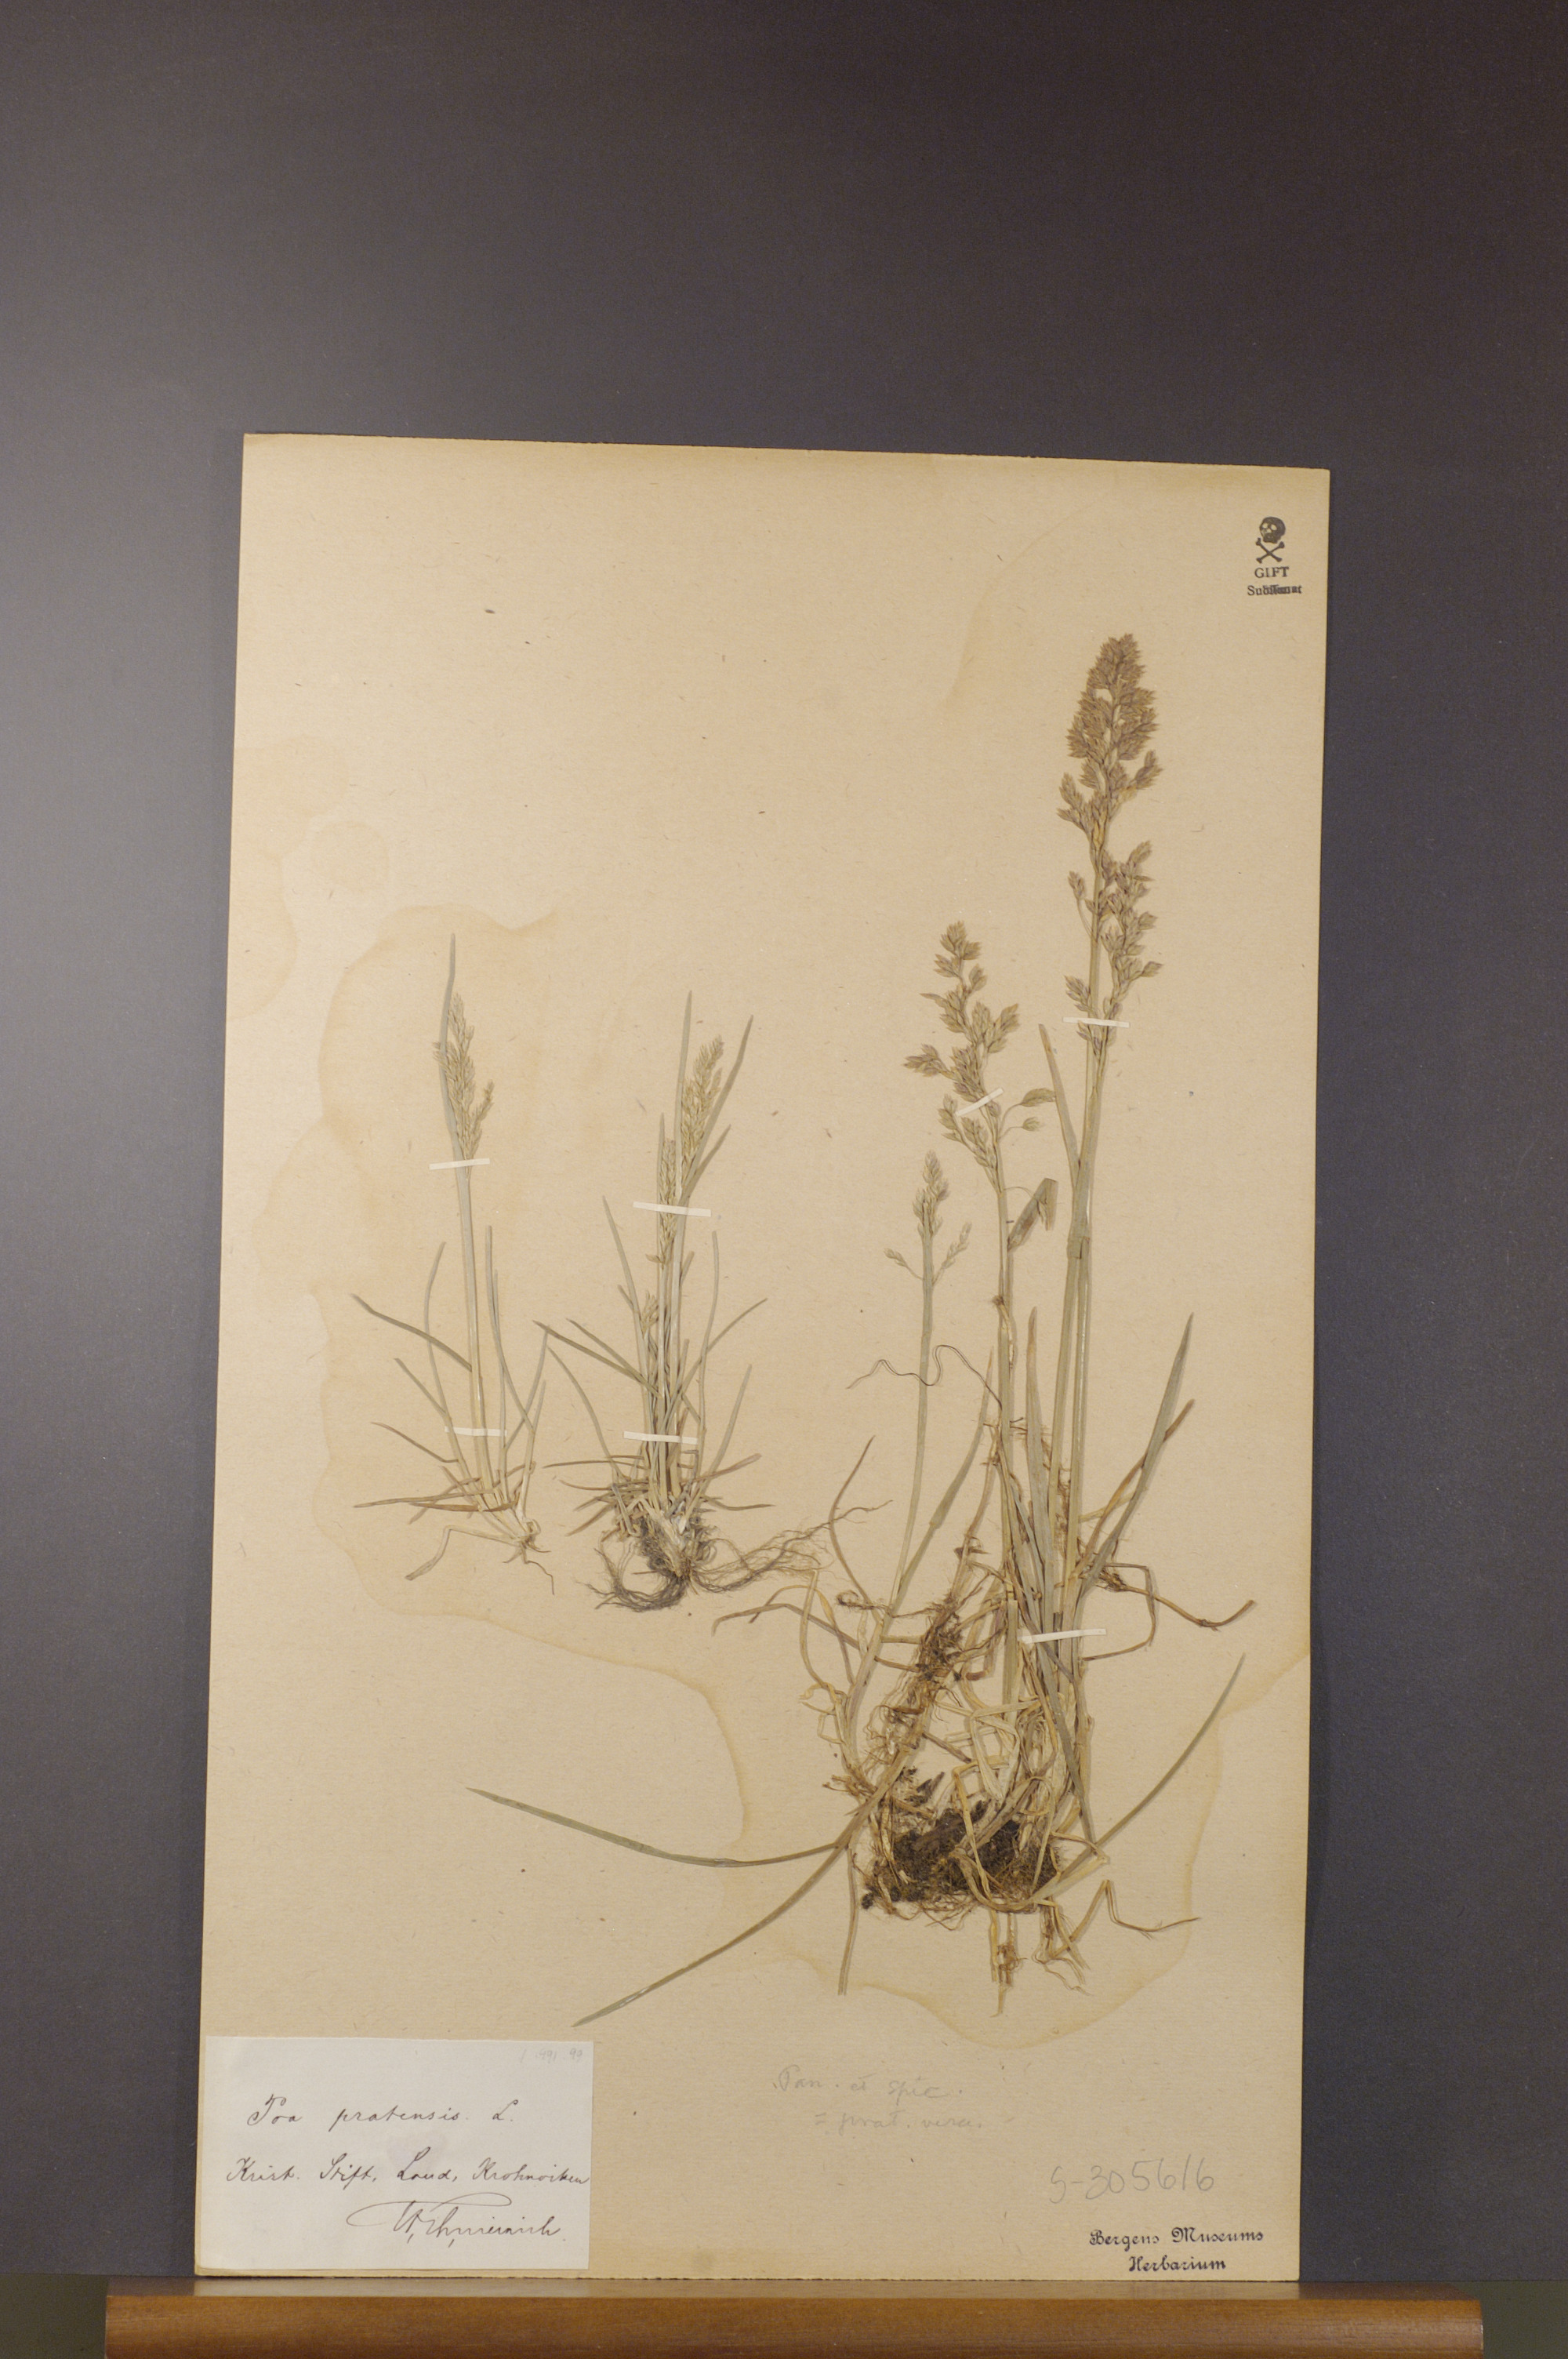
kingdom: Plantae
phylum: Tracheophyta
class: Liliopsida
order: Poales
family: Poaceae
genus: Poa
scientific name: Poa pratensis
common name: Kentucky bluegrass
